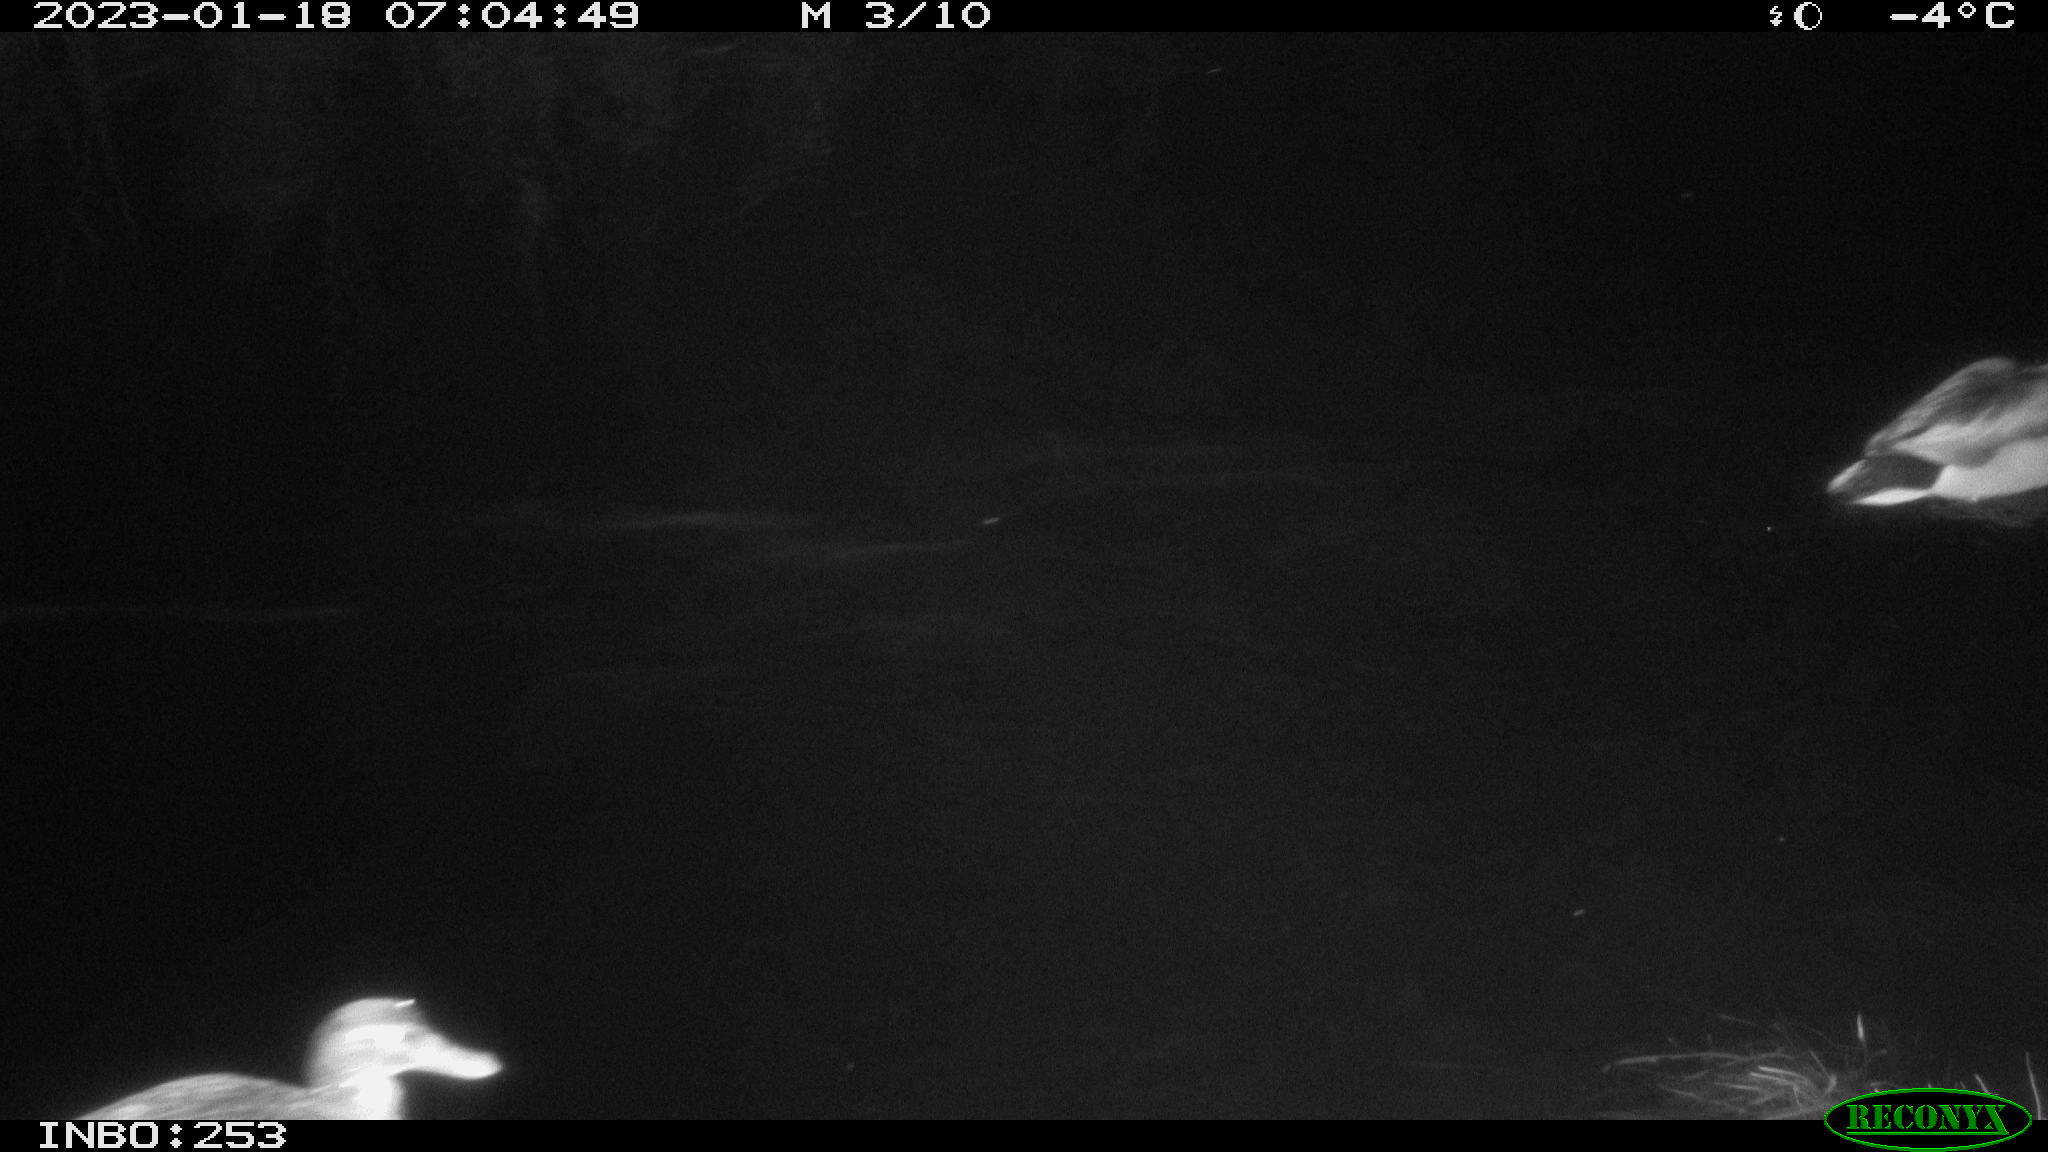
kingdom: Animalia
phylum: Chordata
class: Aves
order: Anseriformes
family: Anatidae
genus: Anas
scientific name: Anas
